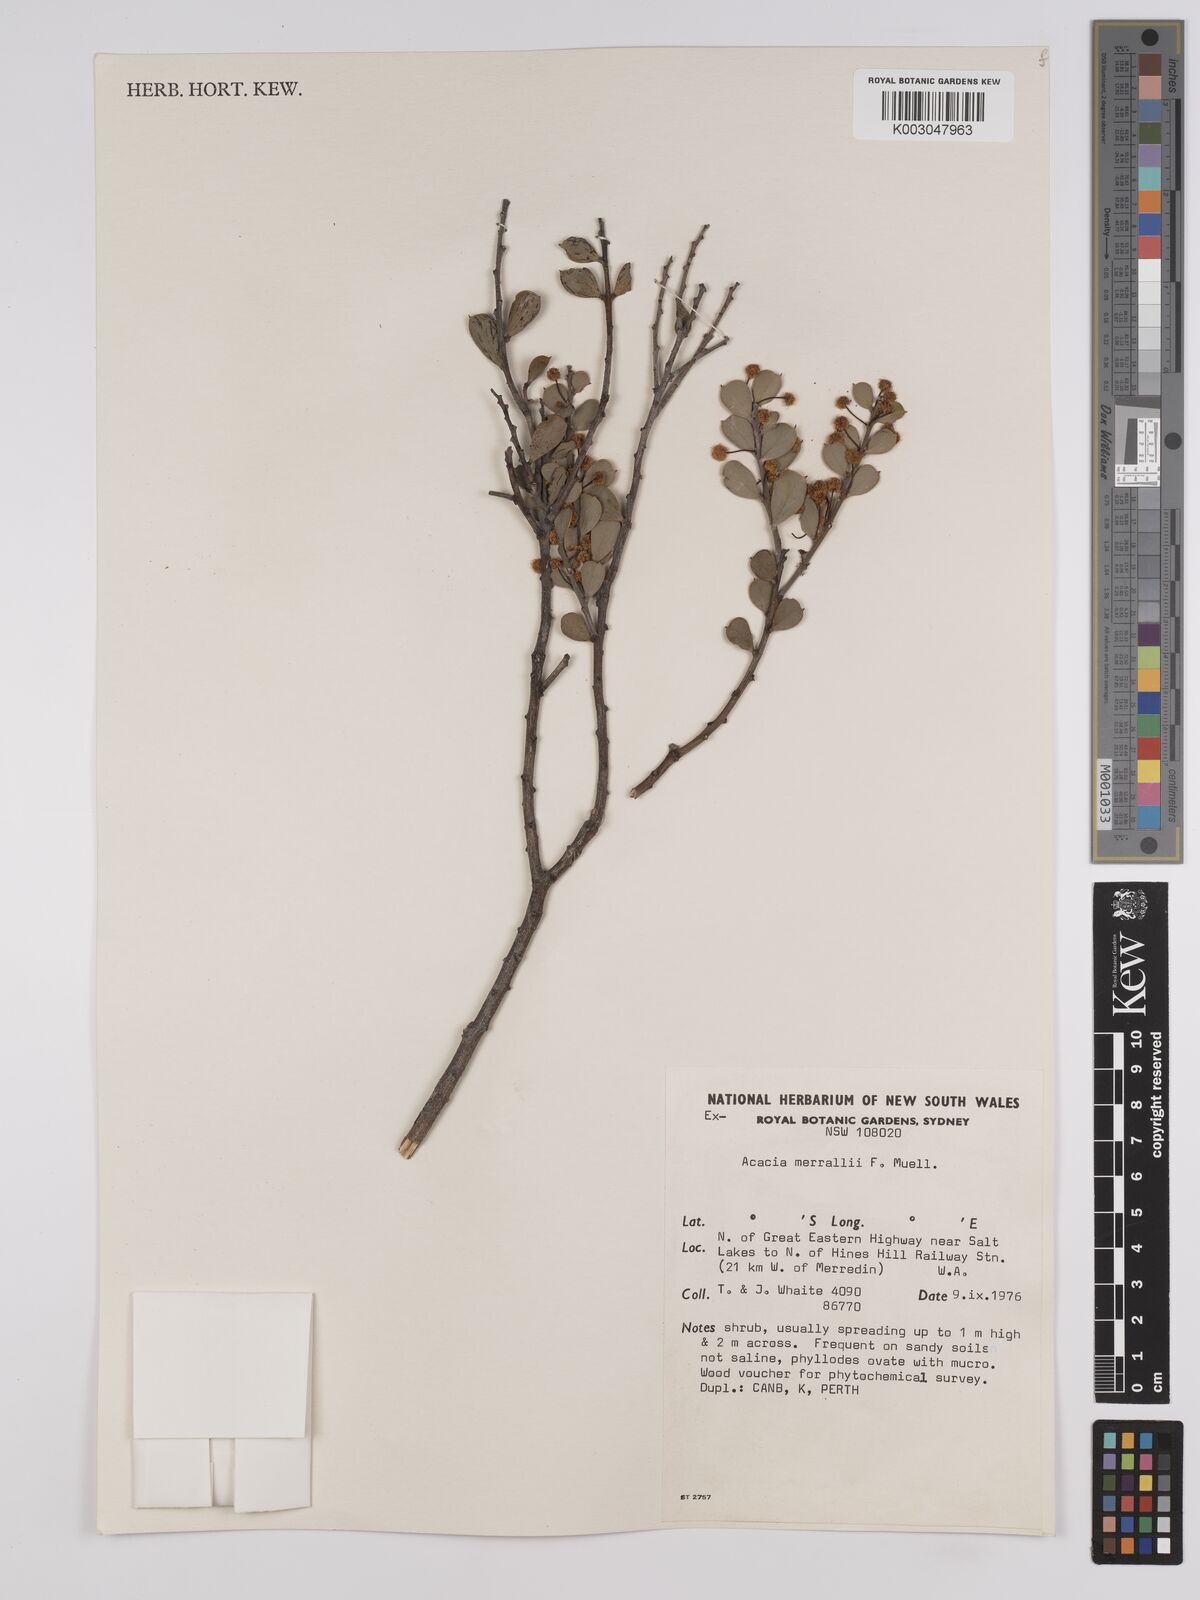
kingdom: Plantae
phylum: Tracheophyta
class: Magnoliopsida
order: Fabales
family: Fabaceae
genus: Acacia
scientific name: Acacia merrallii
